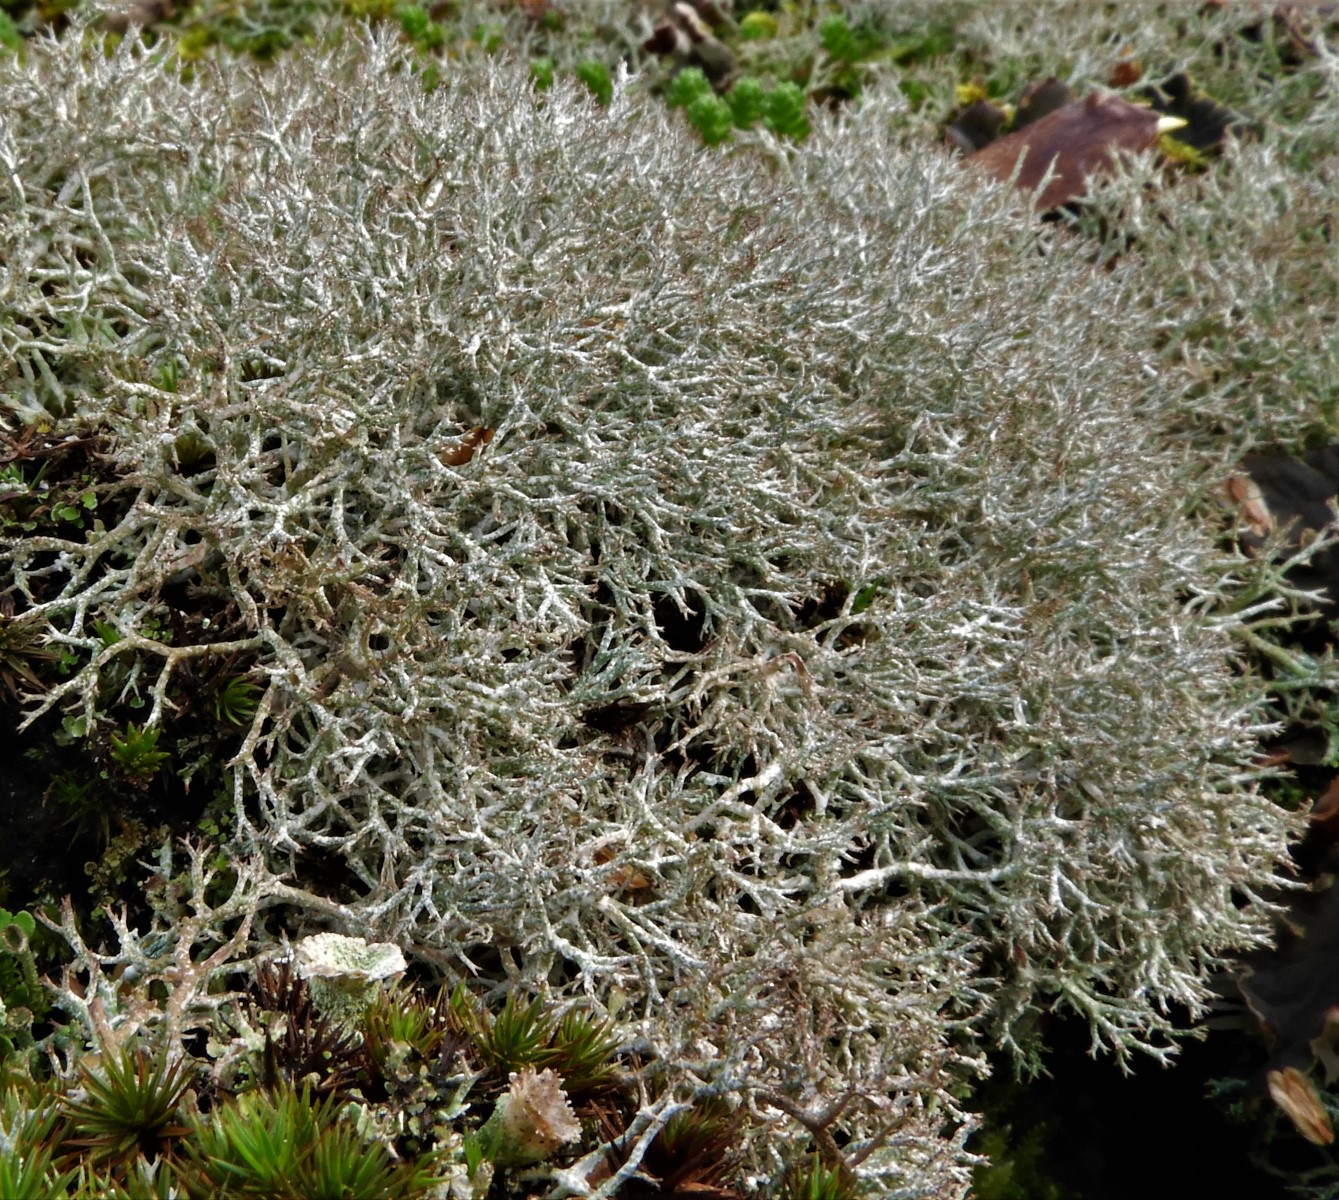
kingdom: Fungi
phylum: Ascomycota
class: Lecanoromycetes
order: Lecanorales
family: Cladoniaceae
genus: Cladonia
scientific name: Cladonia rangiformis
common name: spættet bægerlav
